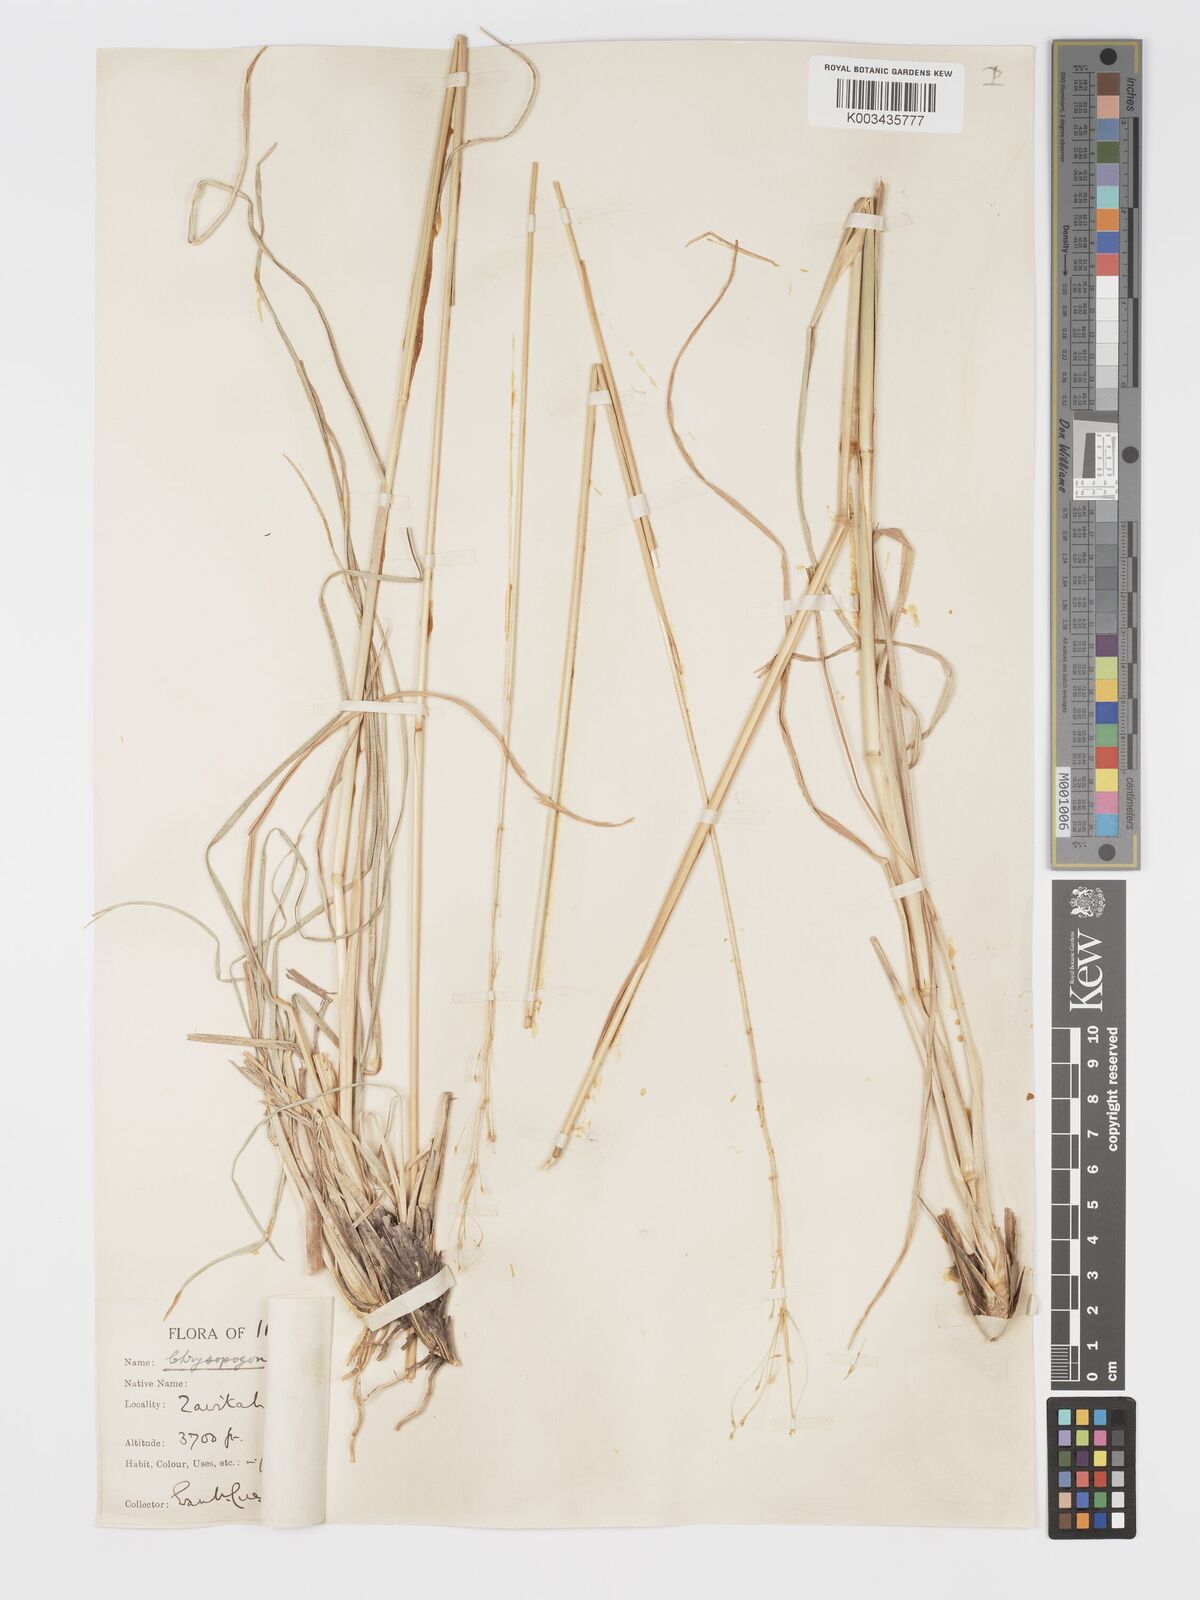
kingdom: Plantae
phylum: Tracheophyta
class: Liliopsida
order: Poales
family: Poaceae
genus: Chrysopogon
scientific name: Chrysopogon gryllus
